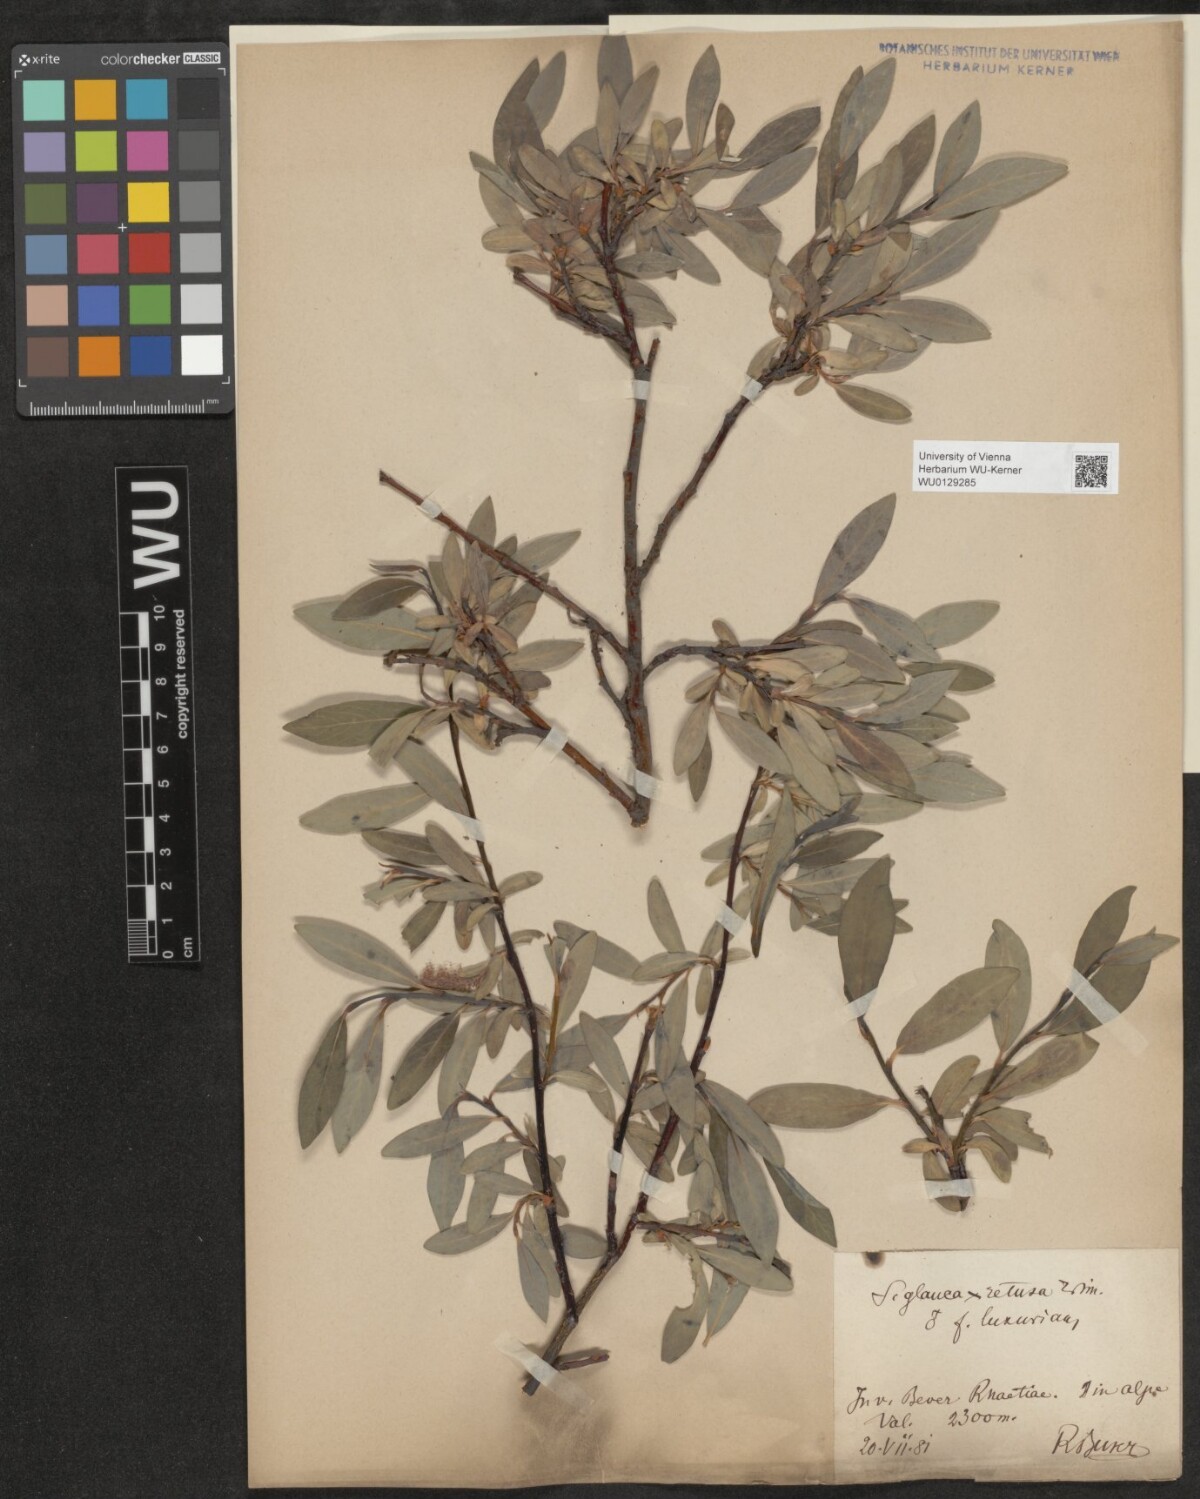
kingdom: Plantae
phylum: Tracheophyta
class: Magnoliopsida
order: Malpighiales
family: Salicaceae
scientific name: Salicaceae
